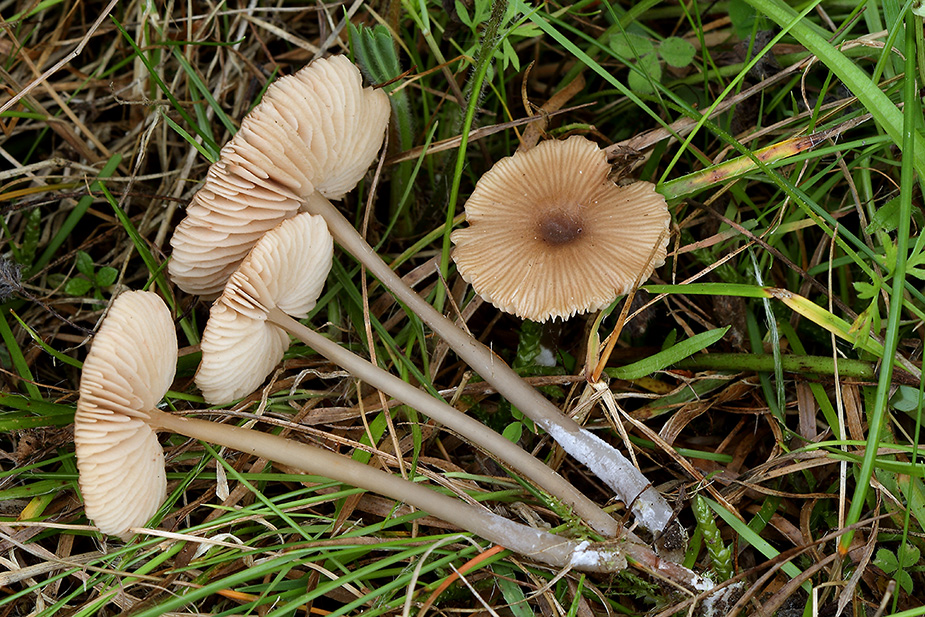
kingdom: Fungi
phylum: Basidiomycota
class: Agaricomycetes
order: Agaricales
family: Entolomataceae
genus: Entoloma
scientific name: Entoloma longistriatum
